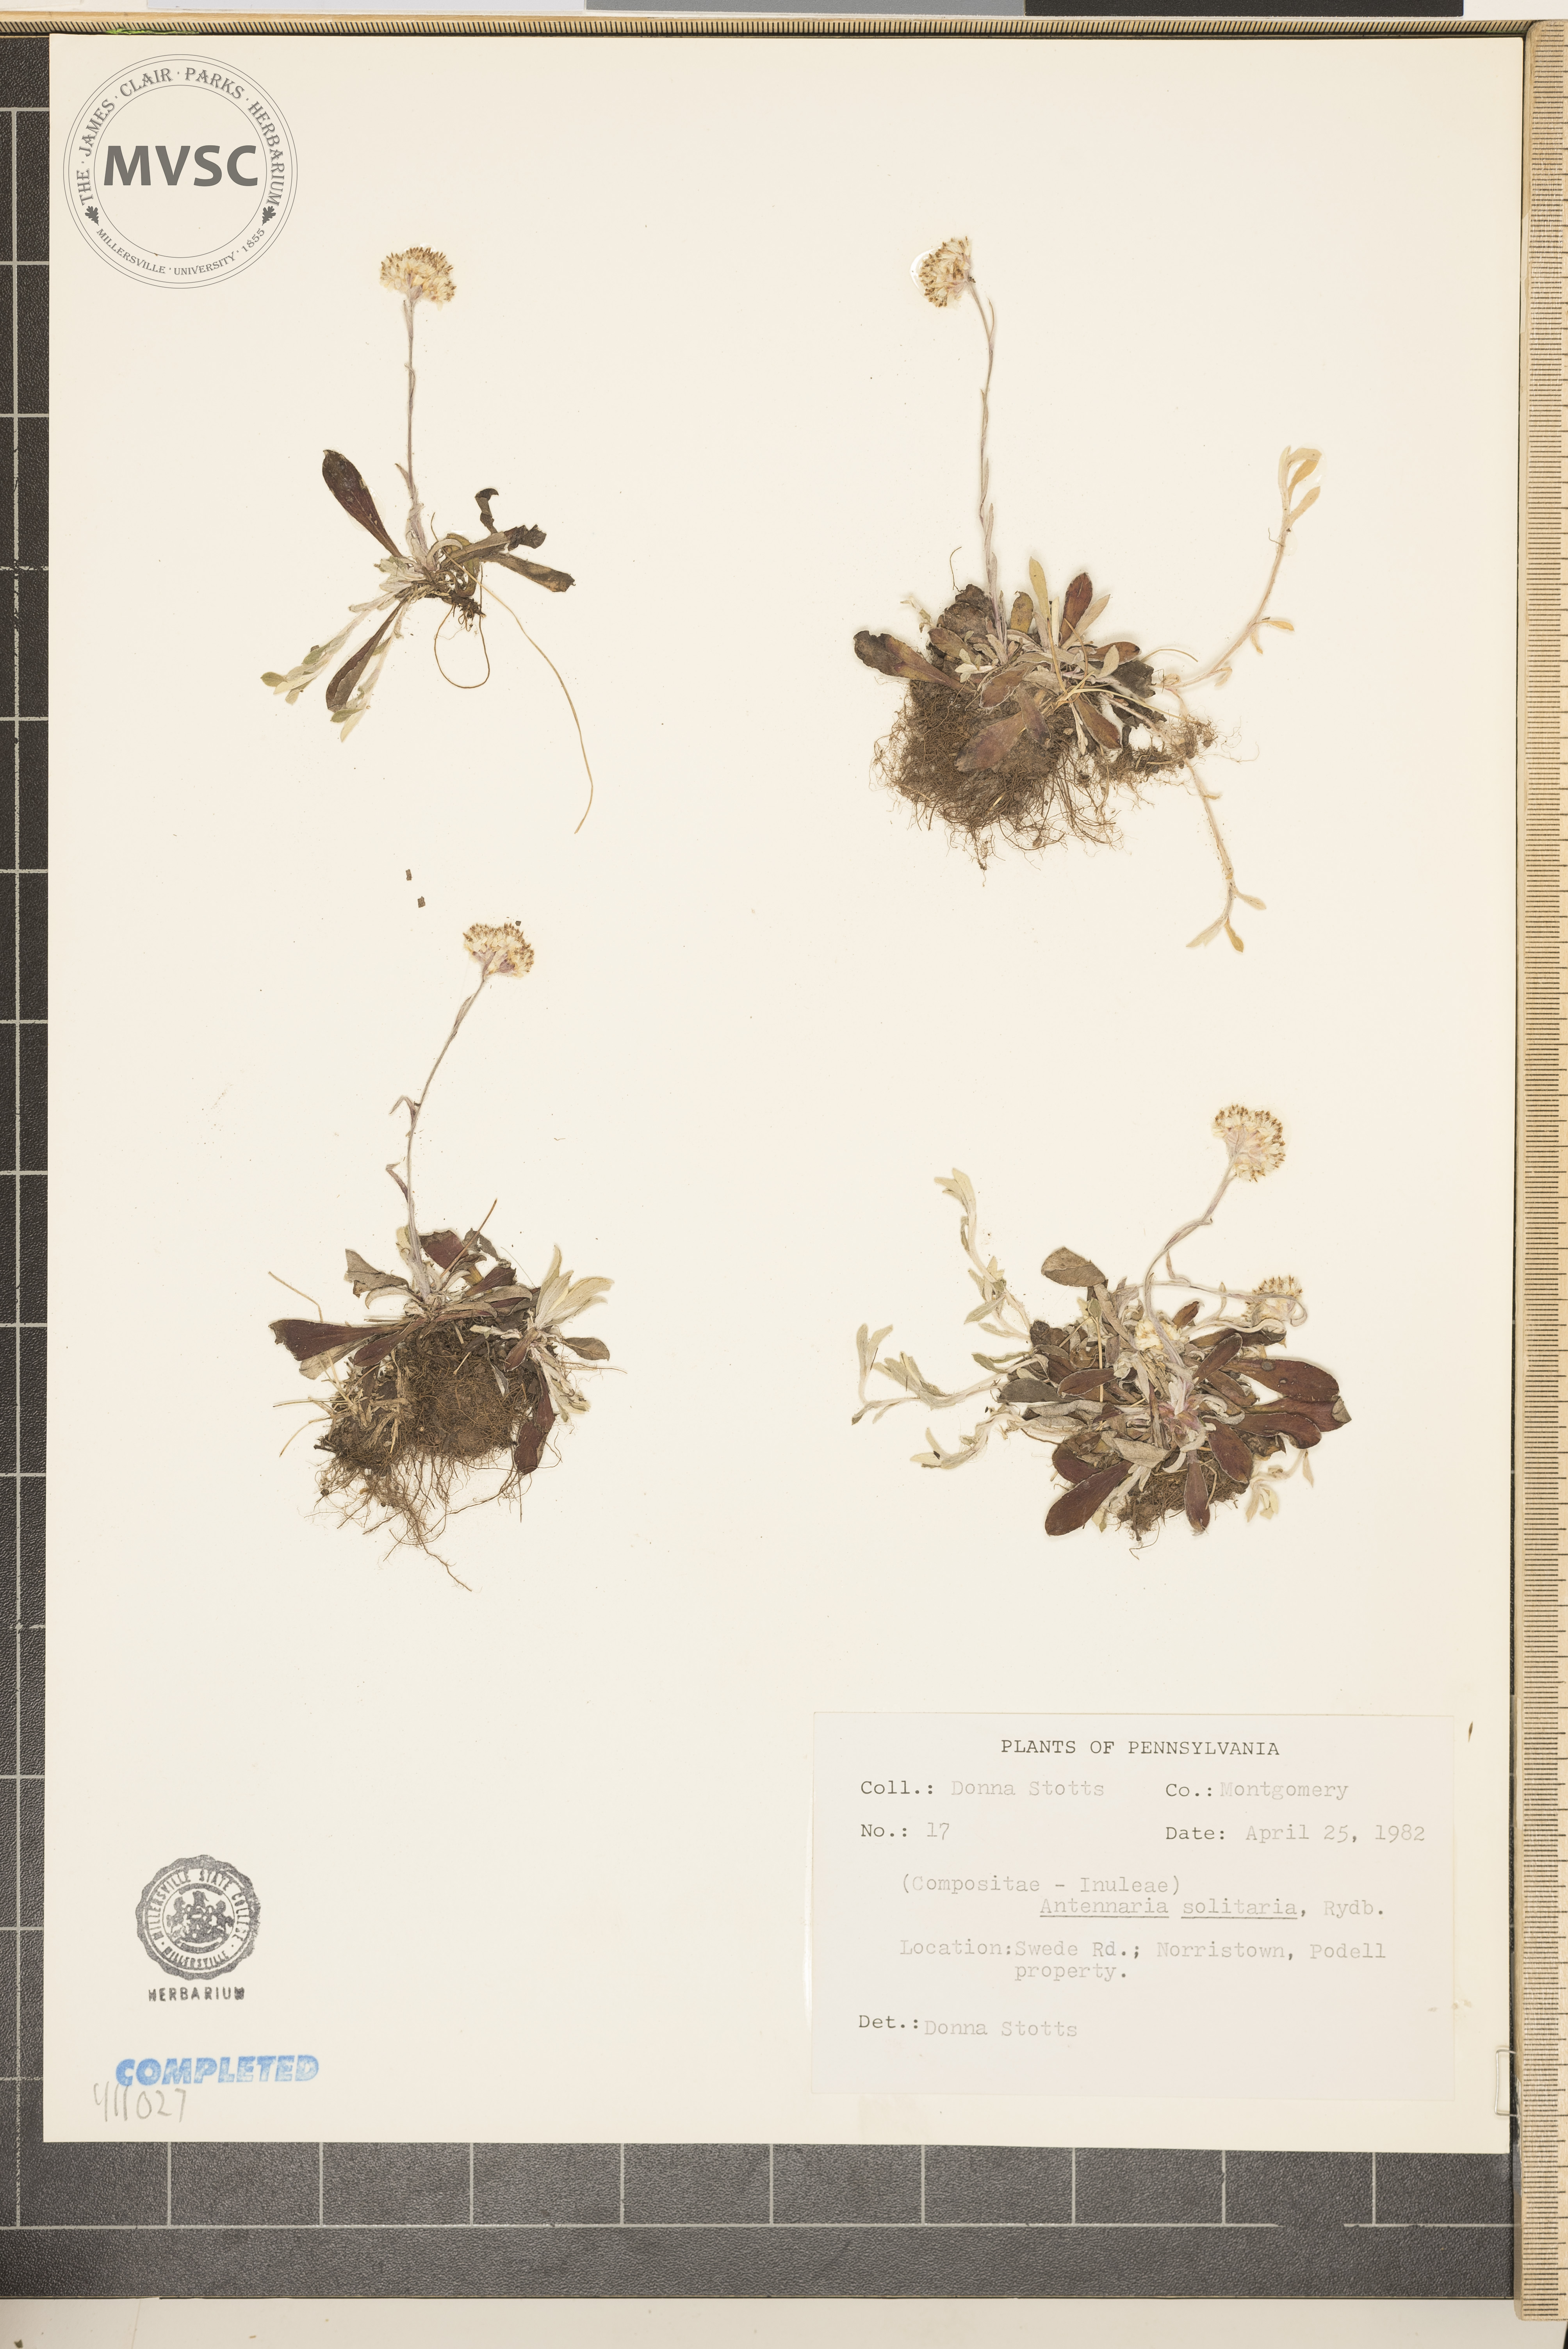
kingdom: Plantae
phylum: Tracheophyta
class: Magnoliopsida
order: Asterales
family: Asteraceae
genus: Antennaria
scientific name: Antennaria howellii
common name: Howell's pussytoes
